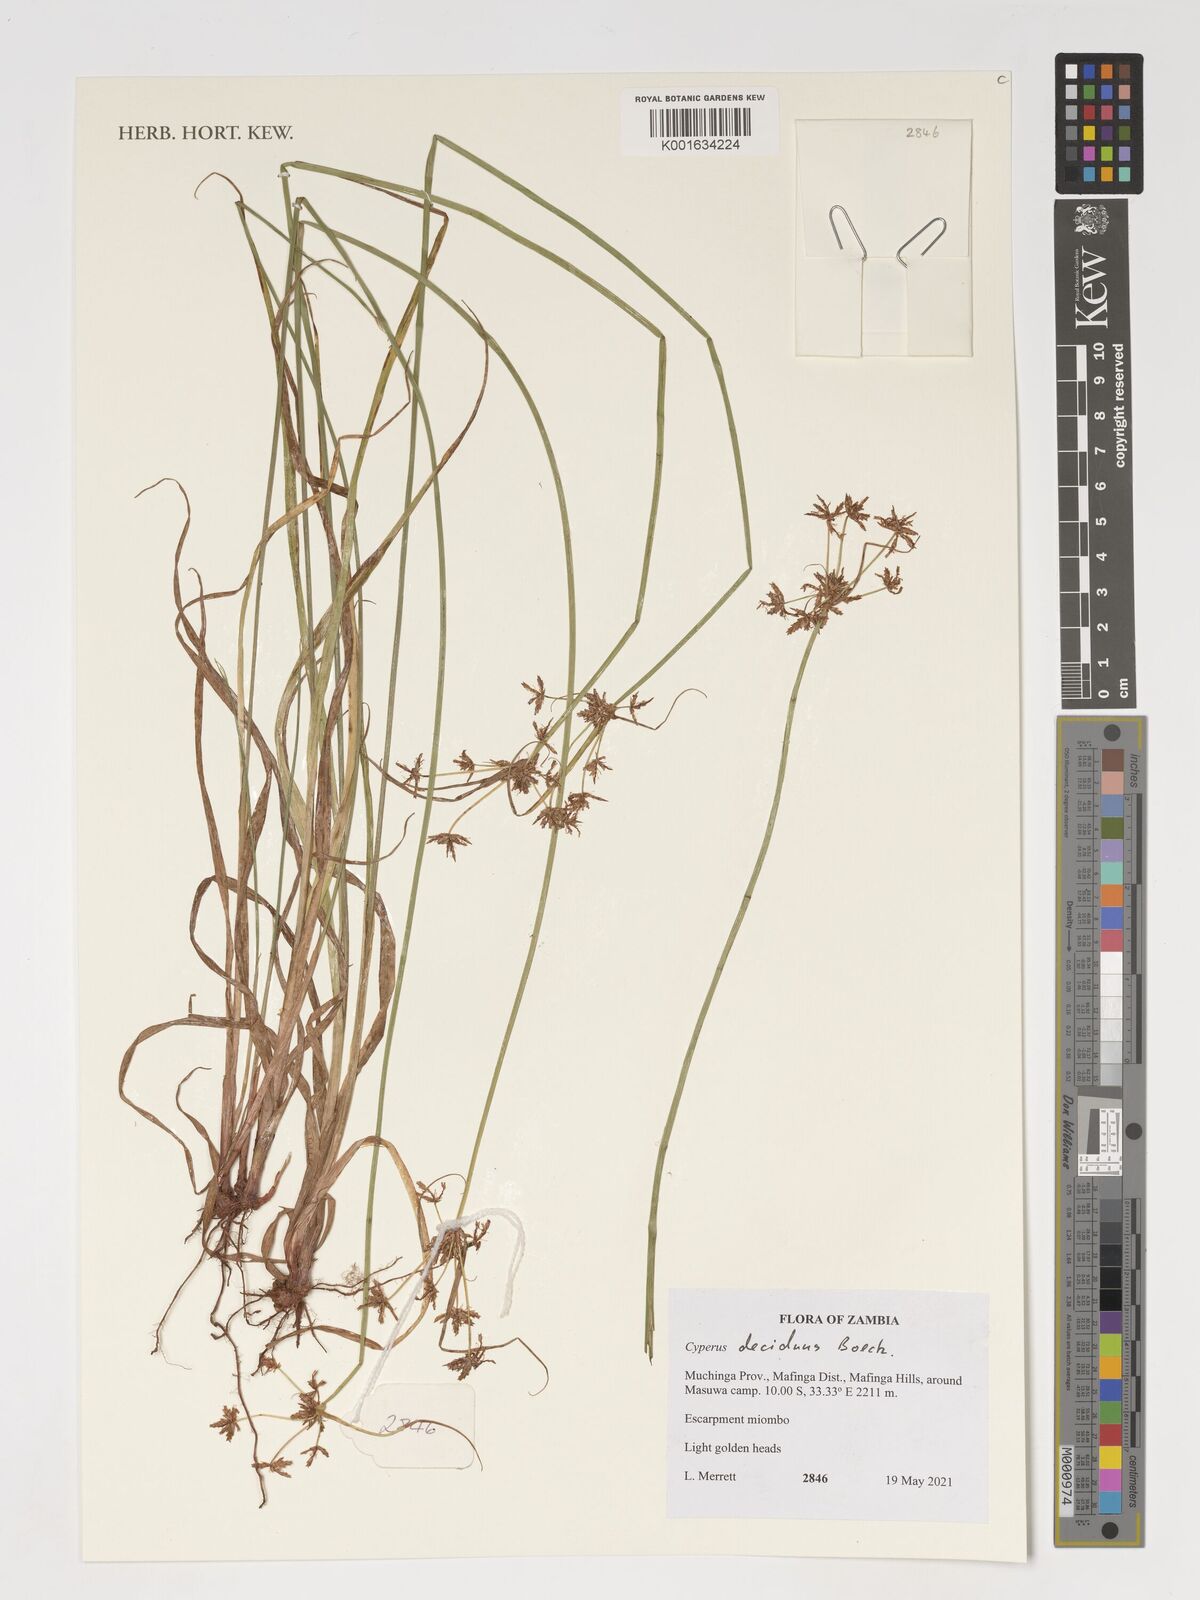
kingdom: Plantae
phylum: Tracheophyta
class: Liliopsida
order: Poales
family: Cyperaceae
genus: Cyperus
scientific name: Cyperus deciduus
